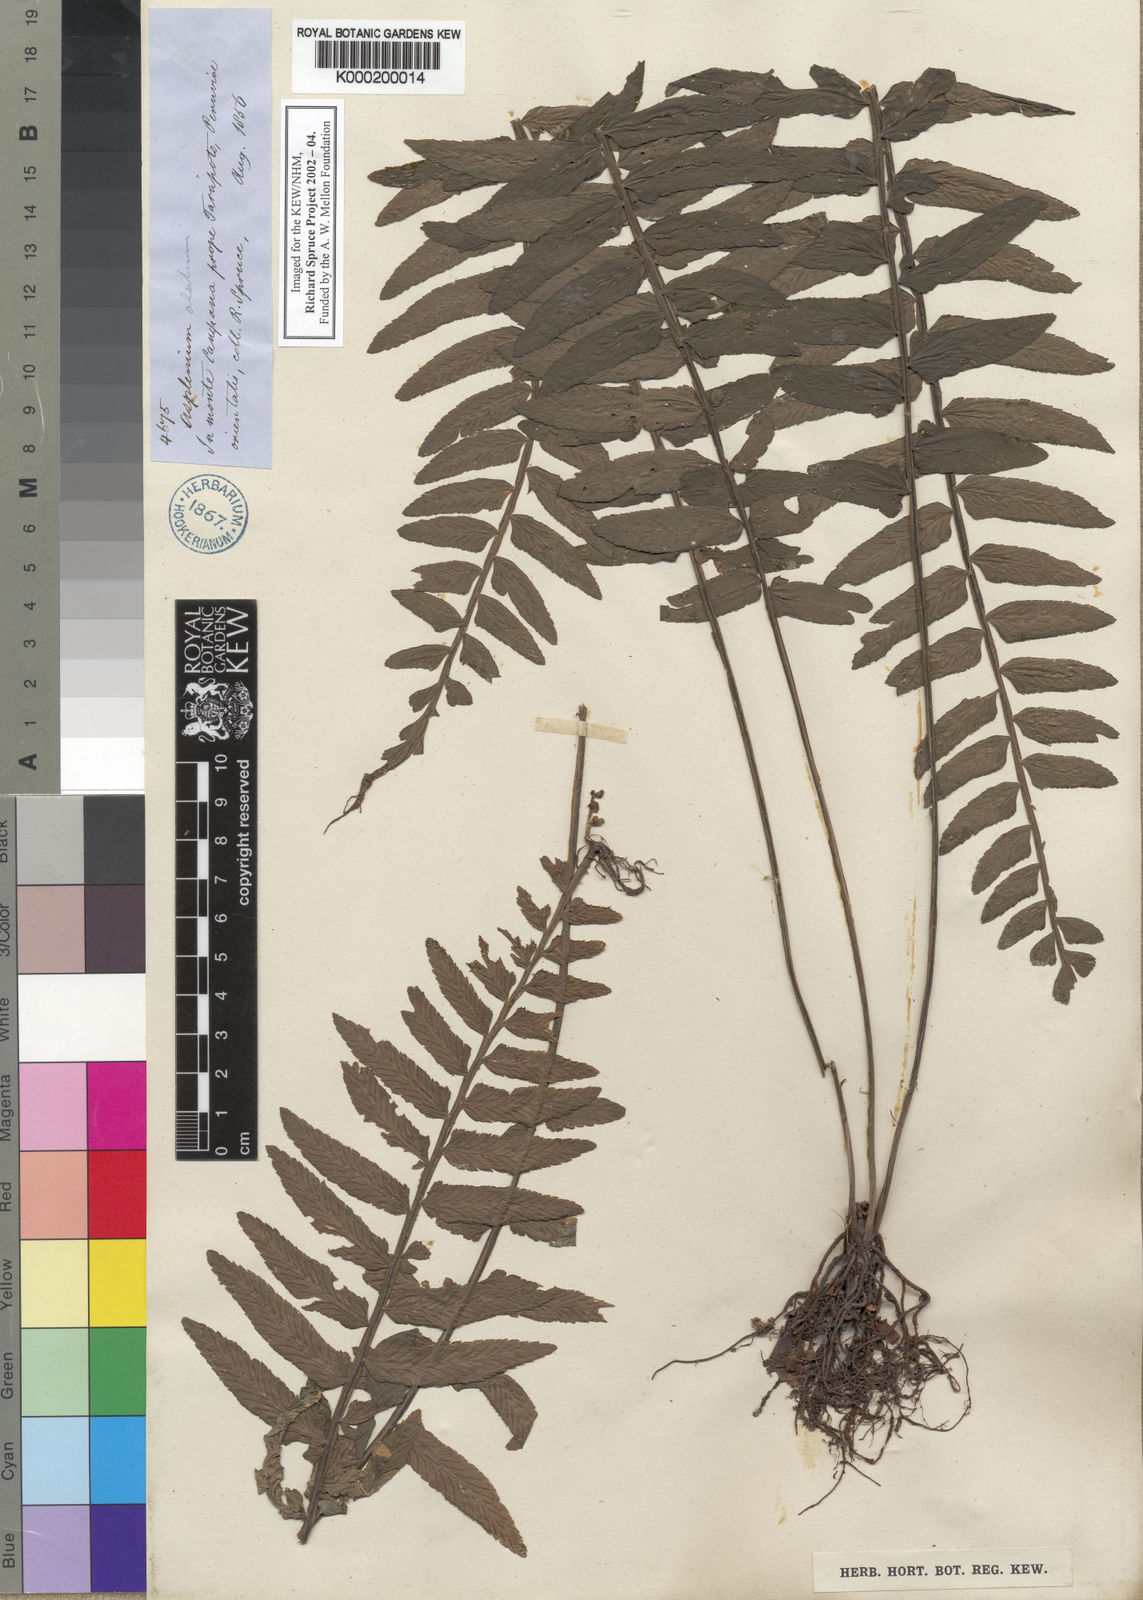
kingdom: Plantae
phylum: Tracheophyta
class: Polypodiopsida
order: Polypodiales
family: Aspleniaceae
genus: Asplenium
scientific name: Asplenium
